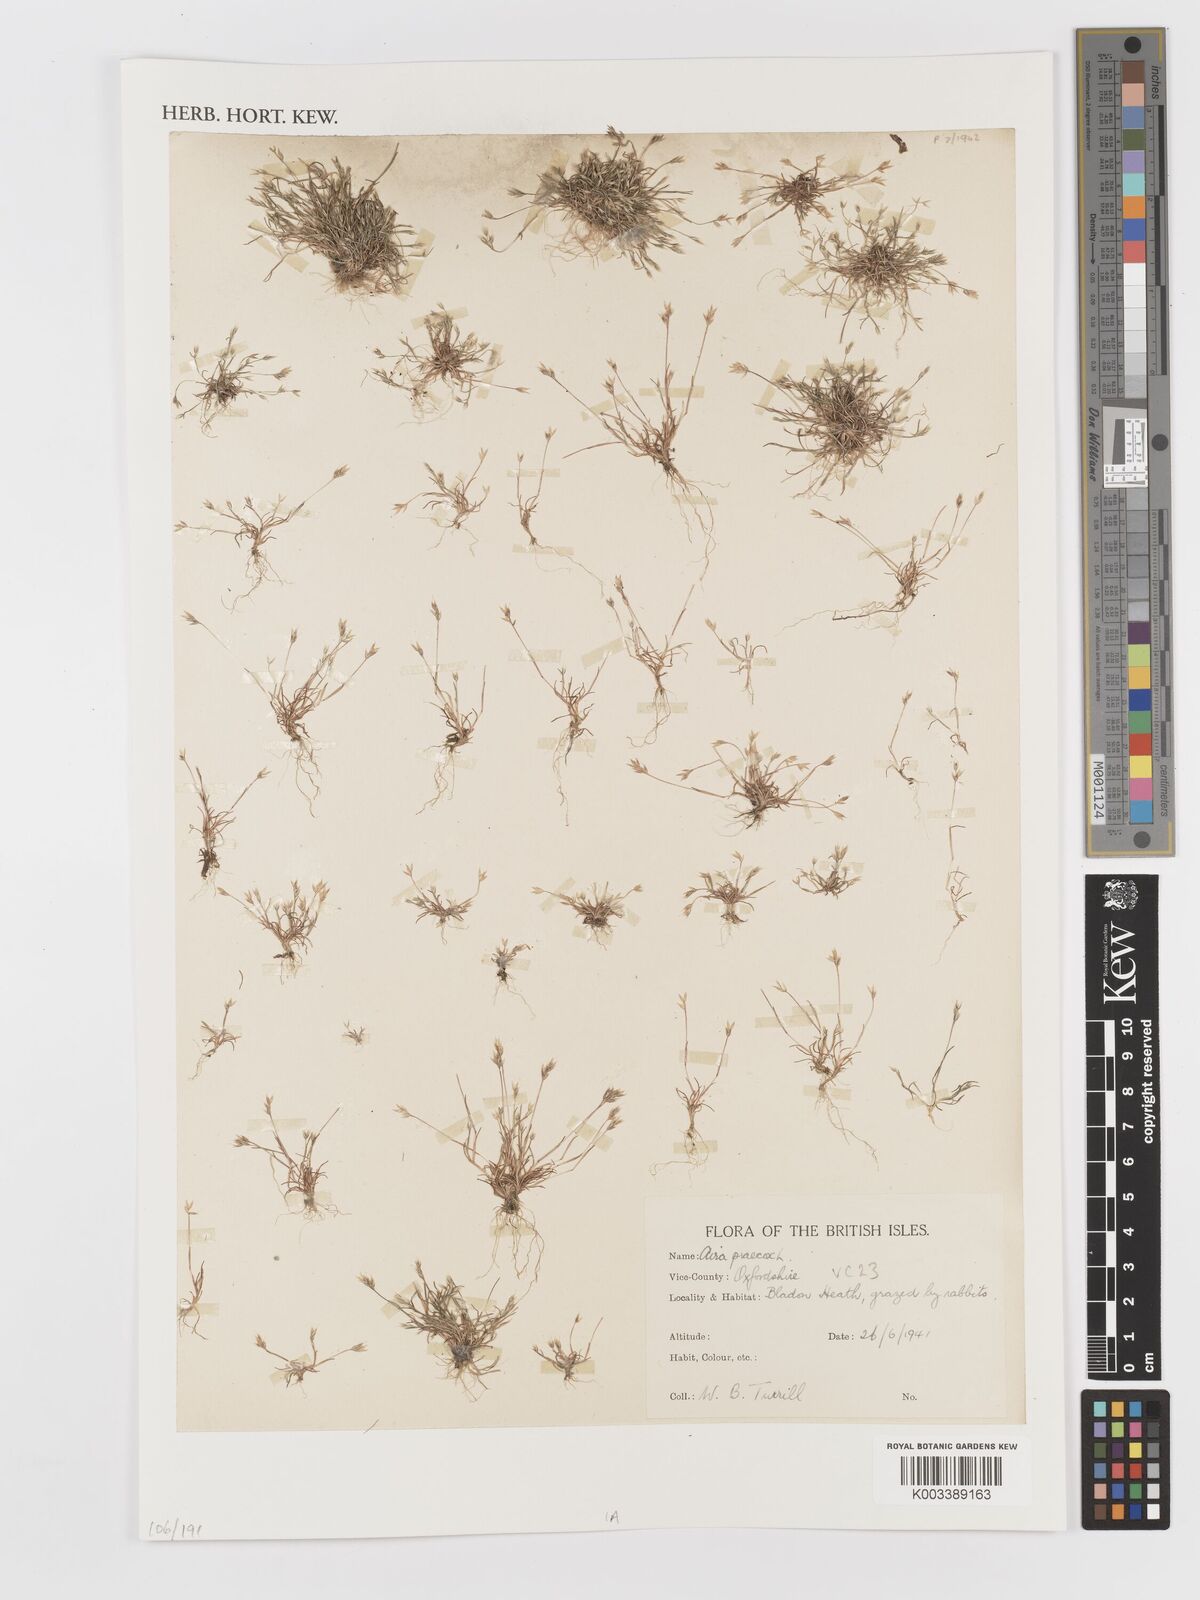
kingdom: Plantae
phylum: Tracheophyta
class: Liliopsida
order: Poales
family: Poaceae
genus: Aira
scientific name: Aira praecox
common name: Early hair-grass
